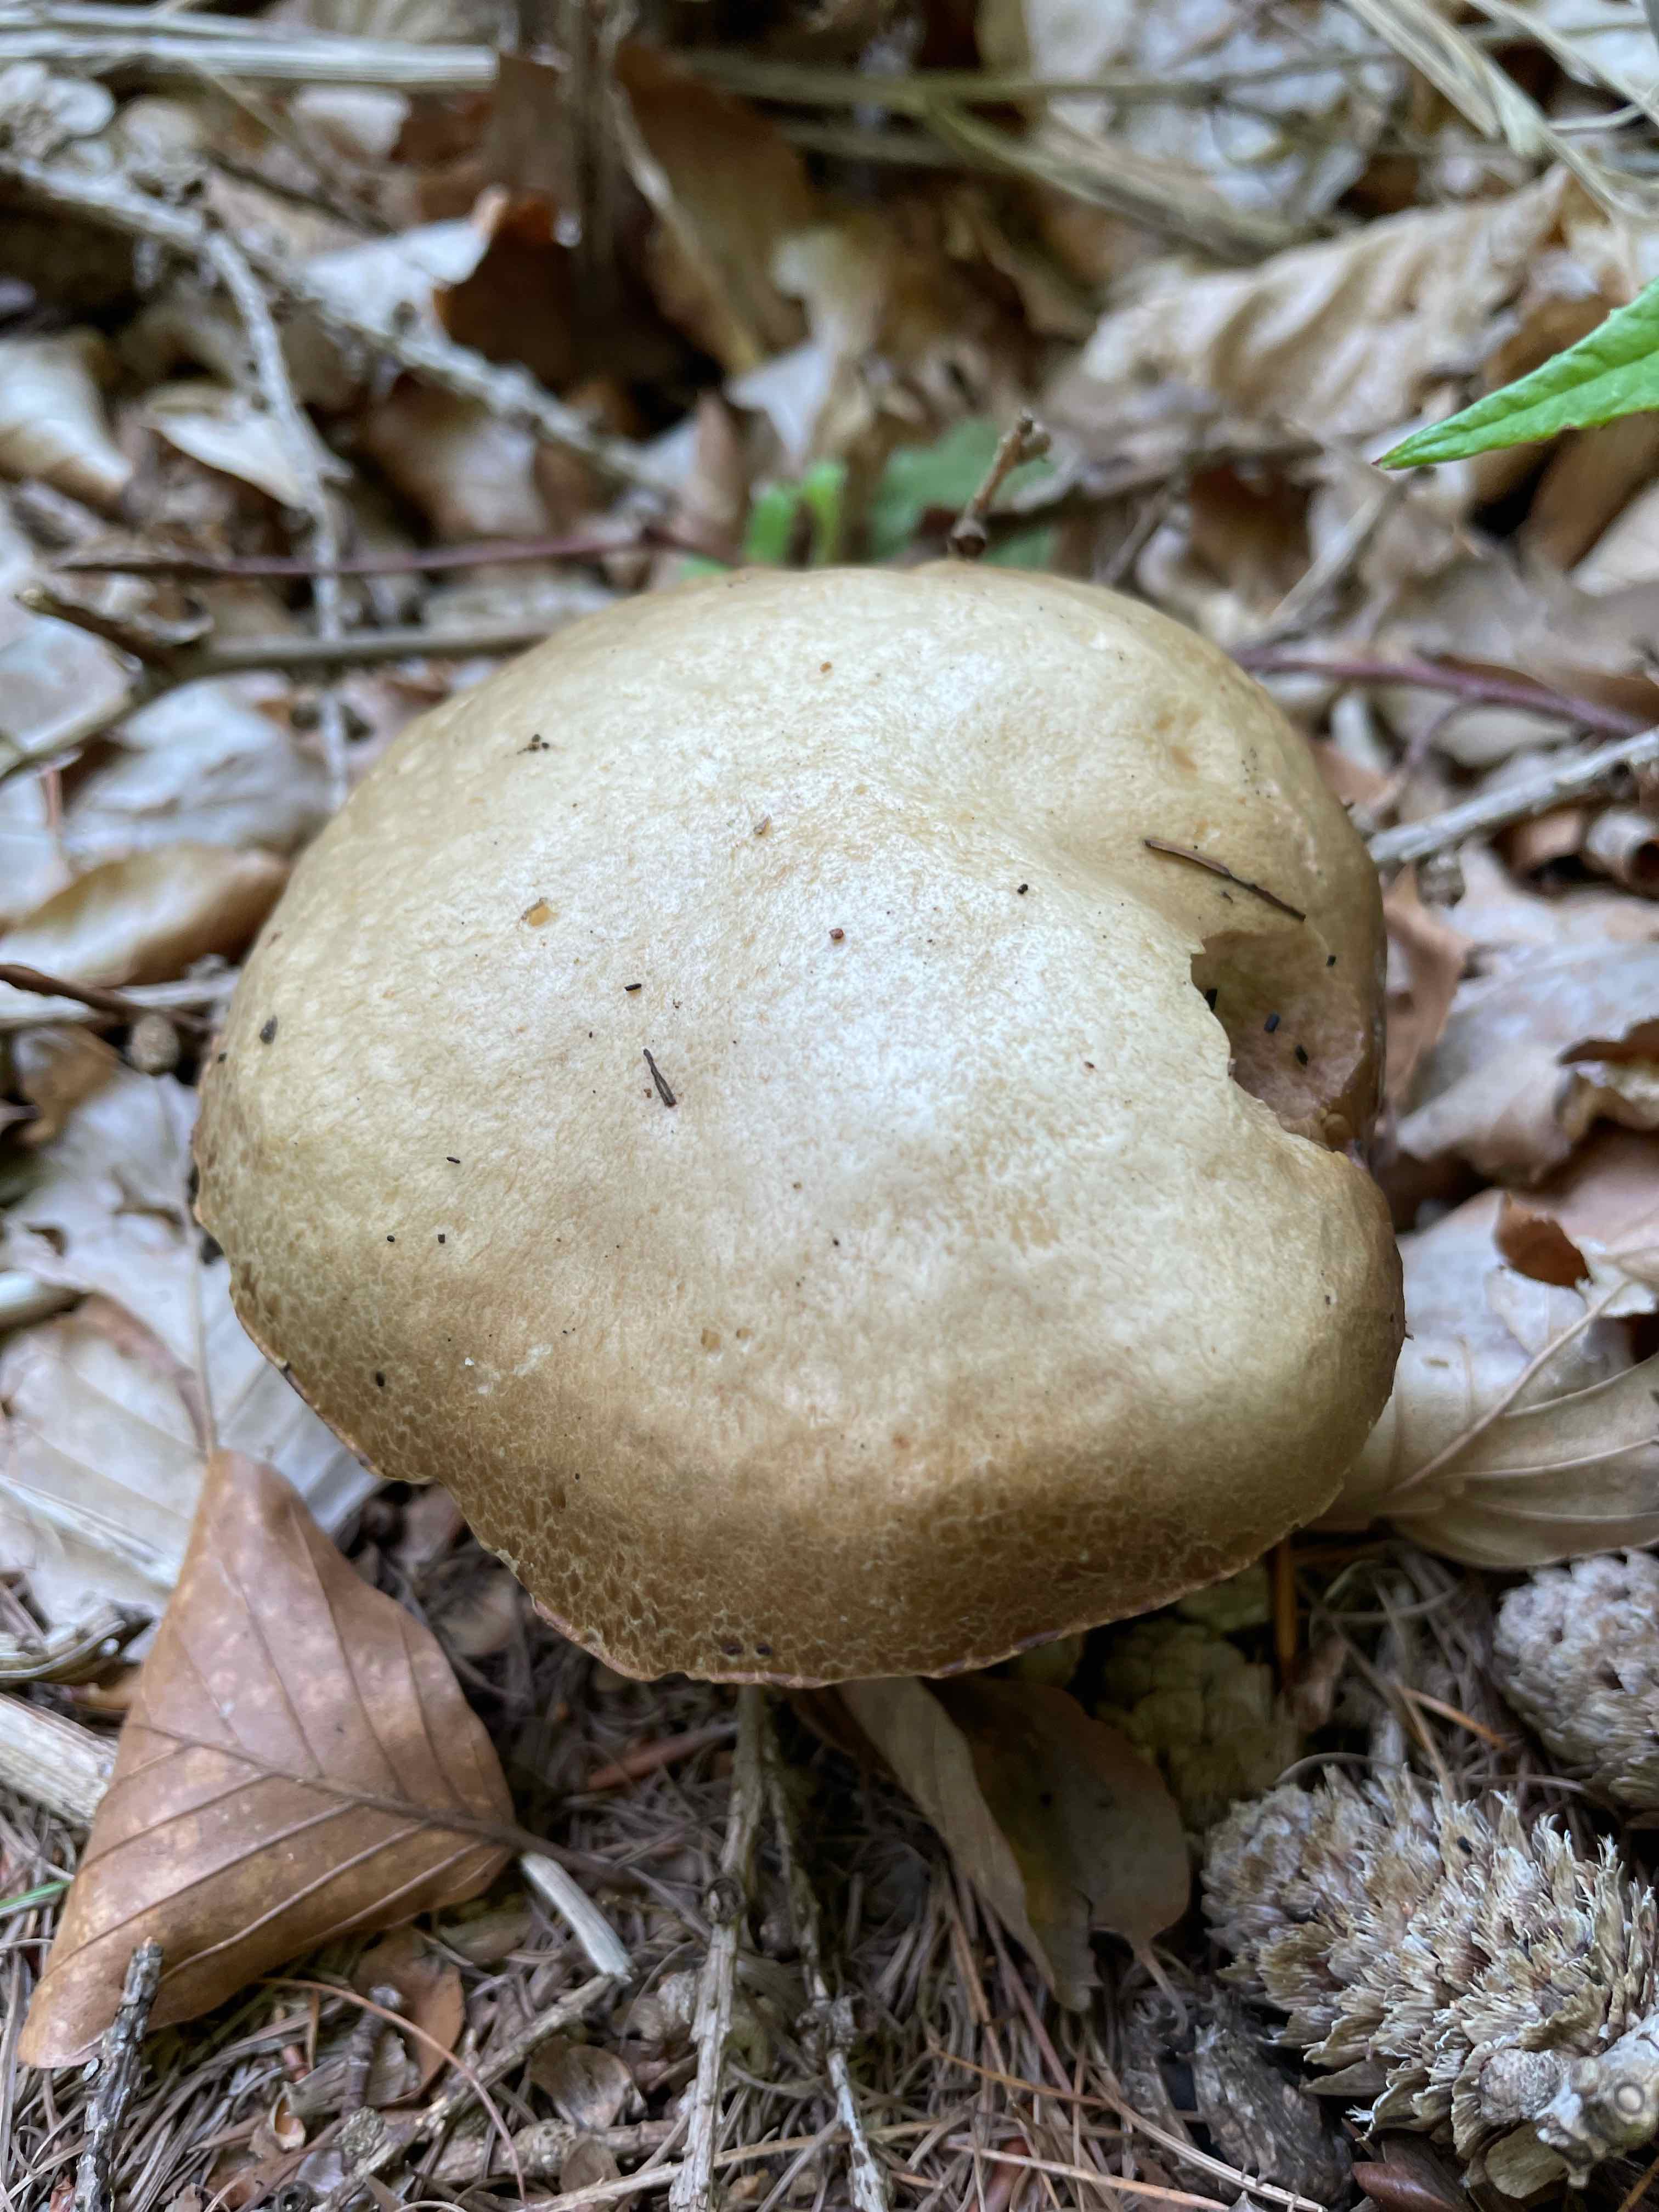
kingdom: Fungi
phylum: Basidiomycota
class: Agaricomycetes
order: Agaricales
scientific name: Agaricales
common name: champignonordenen
